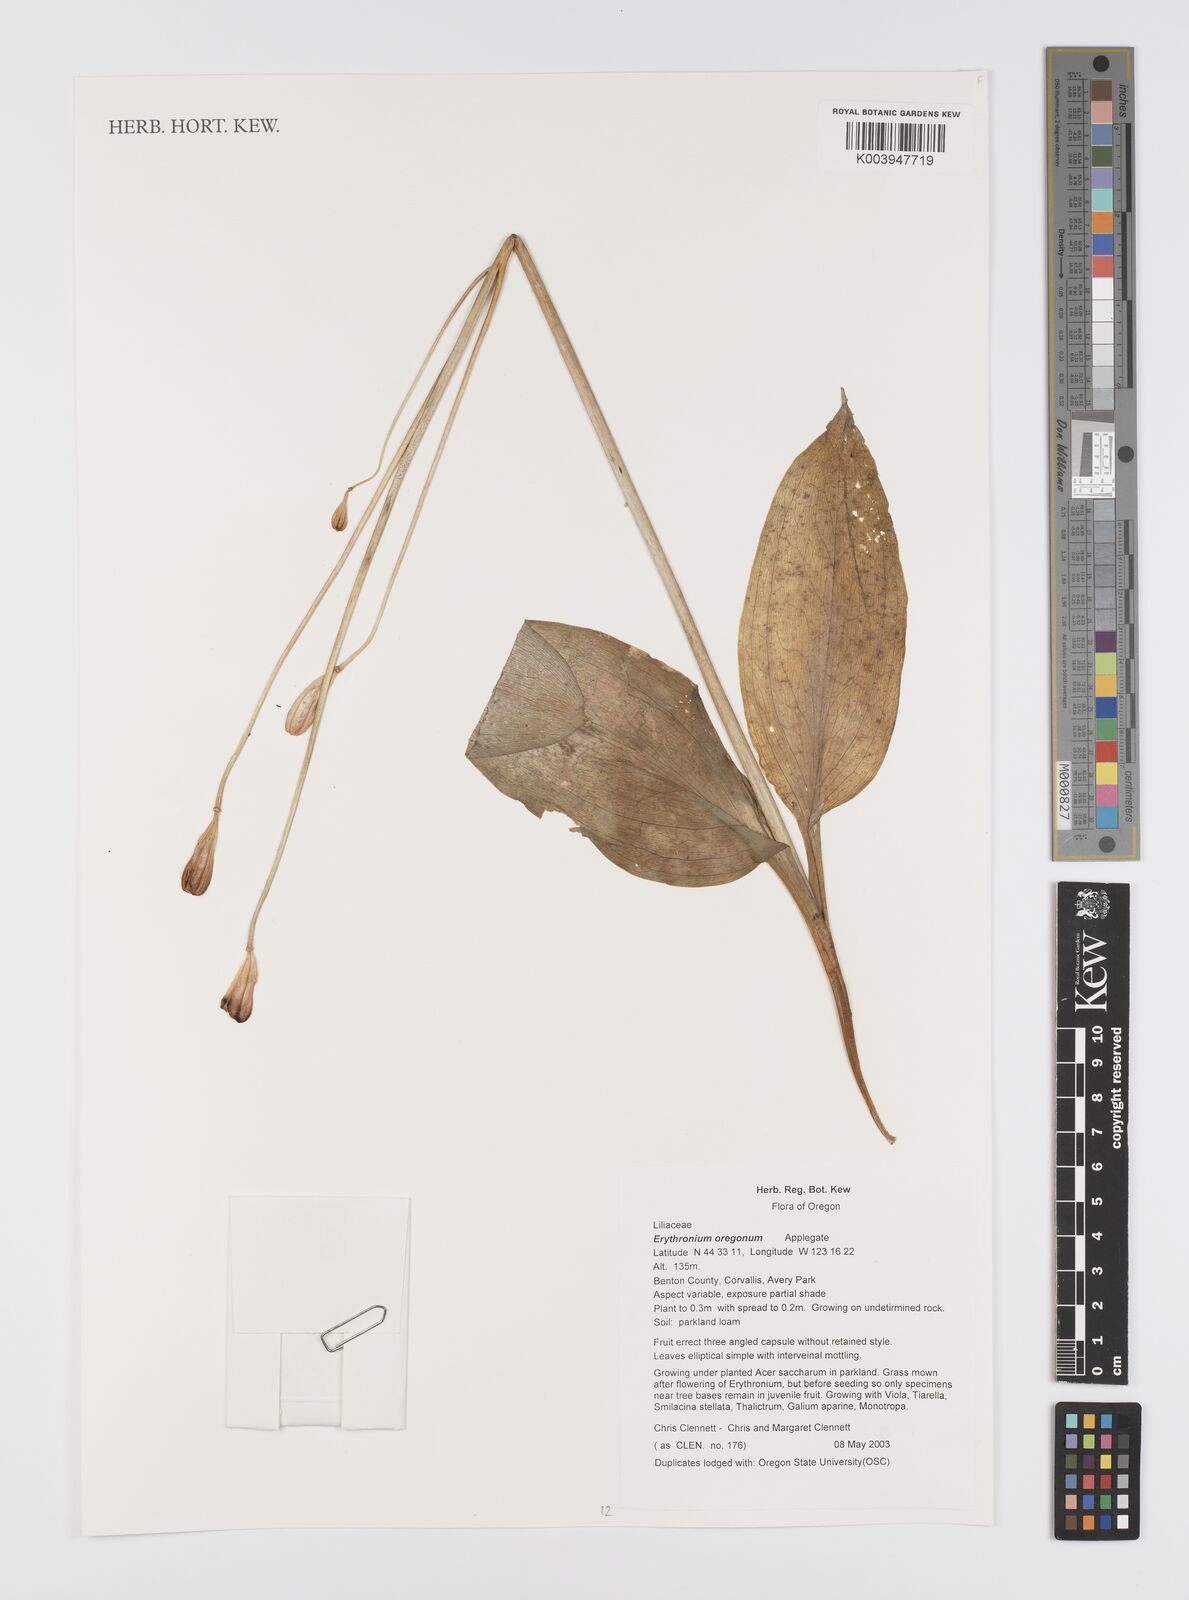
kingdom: Plantae
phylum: Tracheophyta
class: Liliopsida
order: Liliales
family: Liliaceae
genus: Erythronium
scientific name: Erythronium oregonum
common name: Giant adder's-tongue
